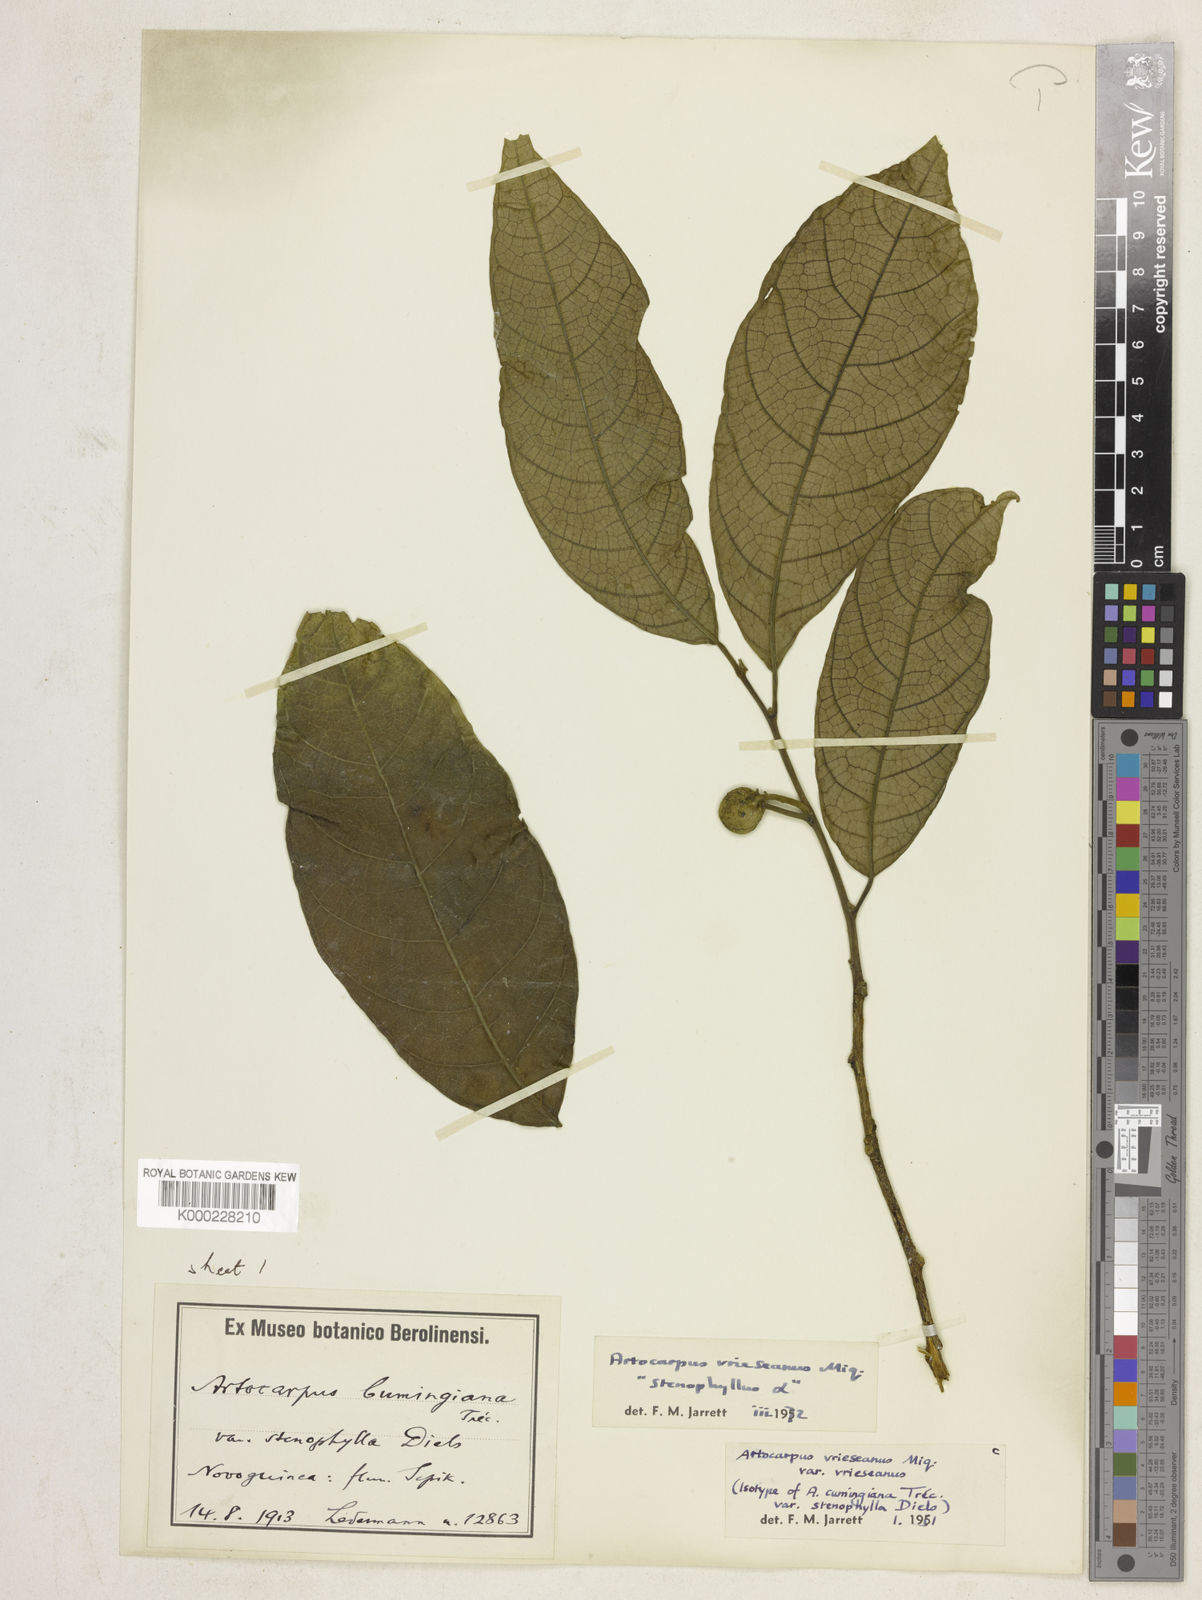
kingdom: Plantae
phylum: Tracheophyta
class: Magnoliopsida
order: Rosales
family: Moraceae
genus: Artocarpus
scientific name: Artocarpus lacucha
